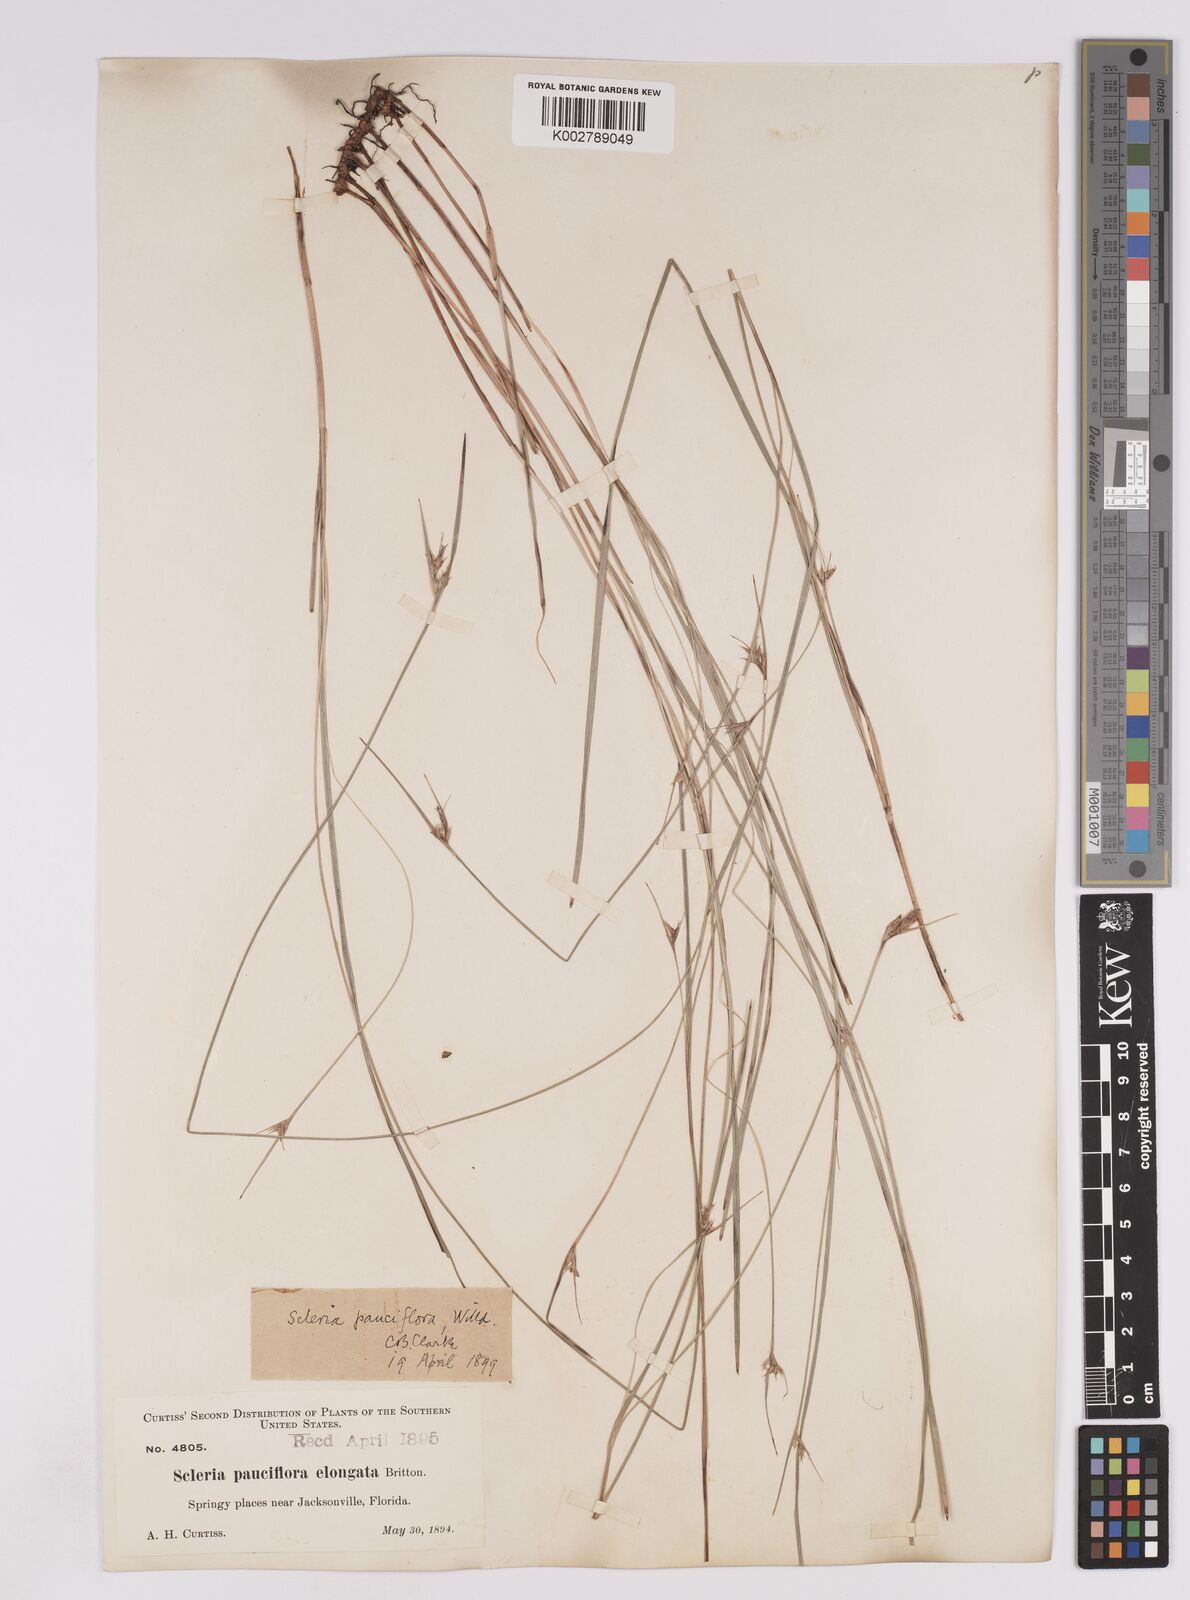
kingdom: Plantae
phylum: Tracheophyta
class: Liliopsida
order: Poales
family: Cyperaceae
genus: Scleria
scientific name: Scleria pauciflora
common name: Few-flowered nutrush
